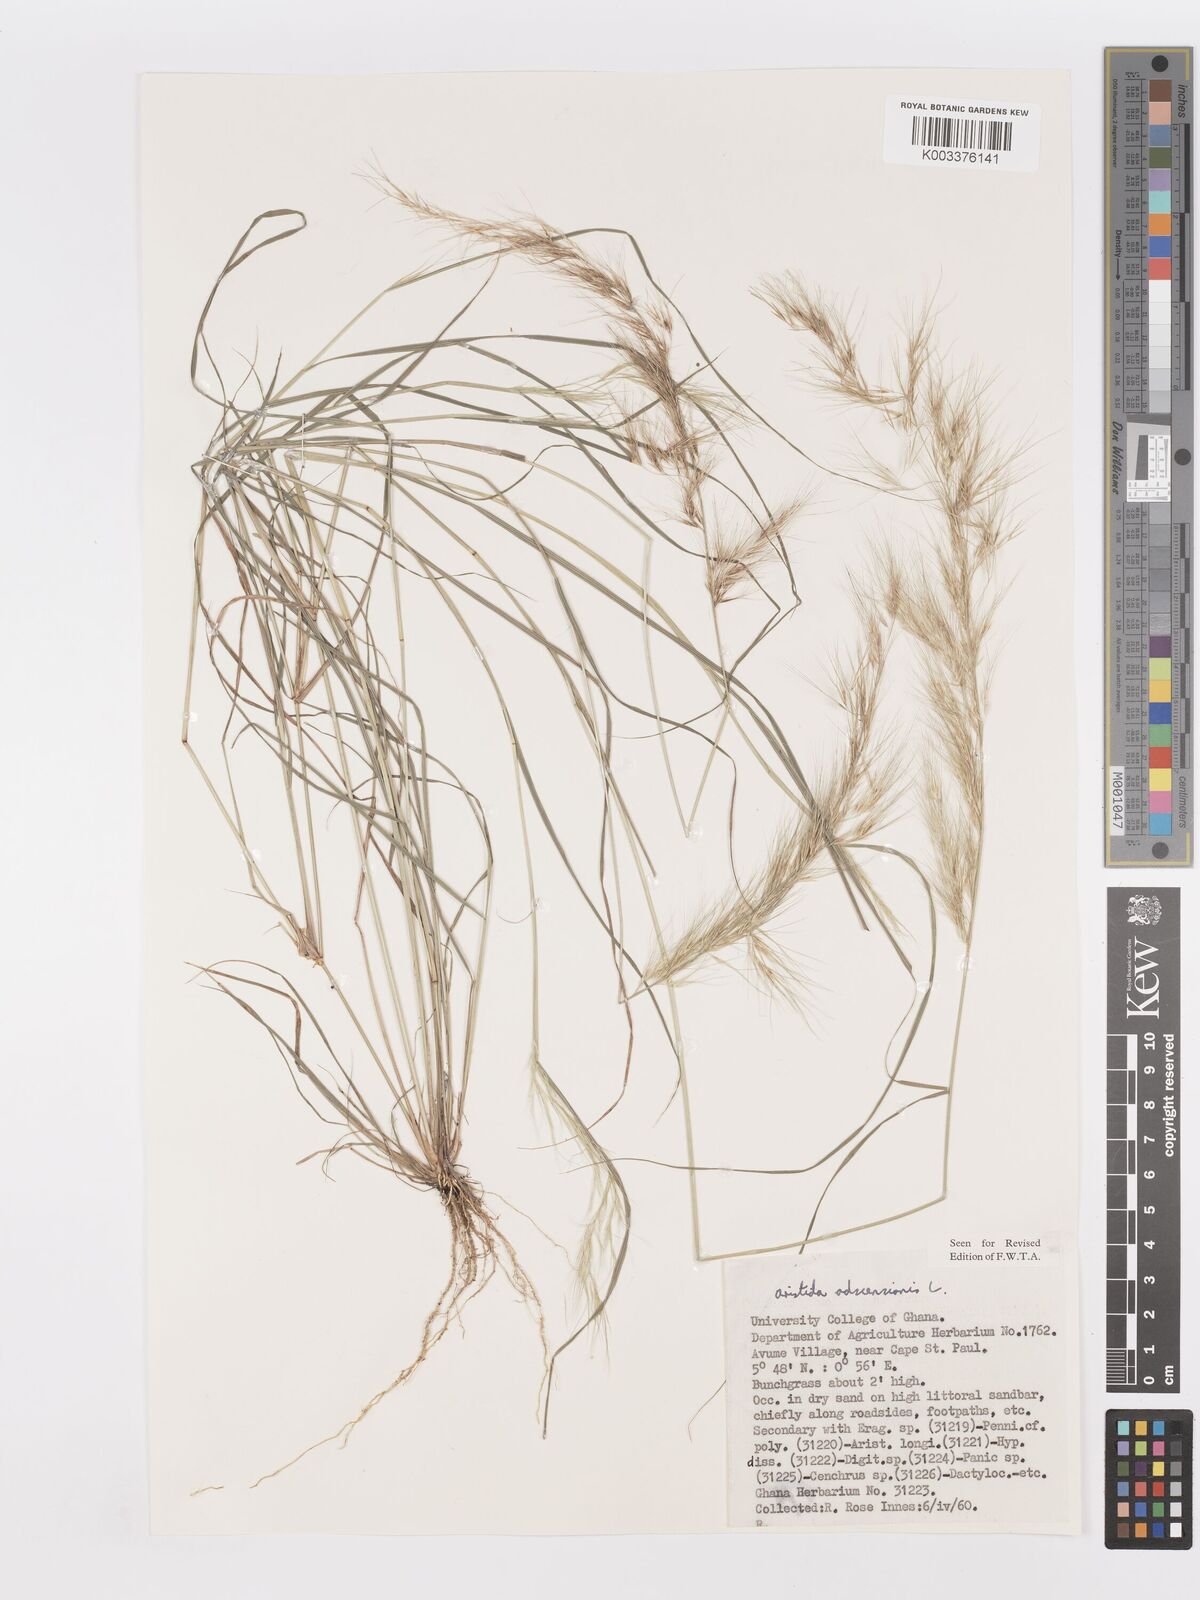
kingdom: Plantae
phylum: Tracheophyta
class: Liliopsida
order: Poales
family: Poaceae
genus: Aristida
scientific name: Aristida adscensionis
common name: Sixweeks threeawn
